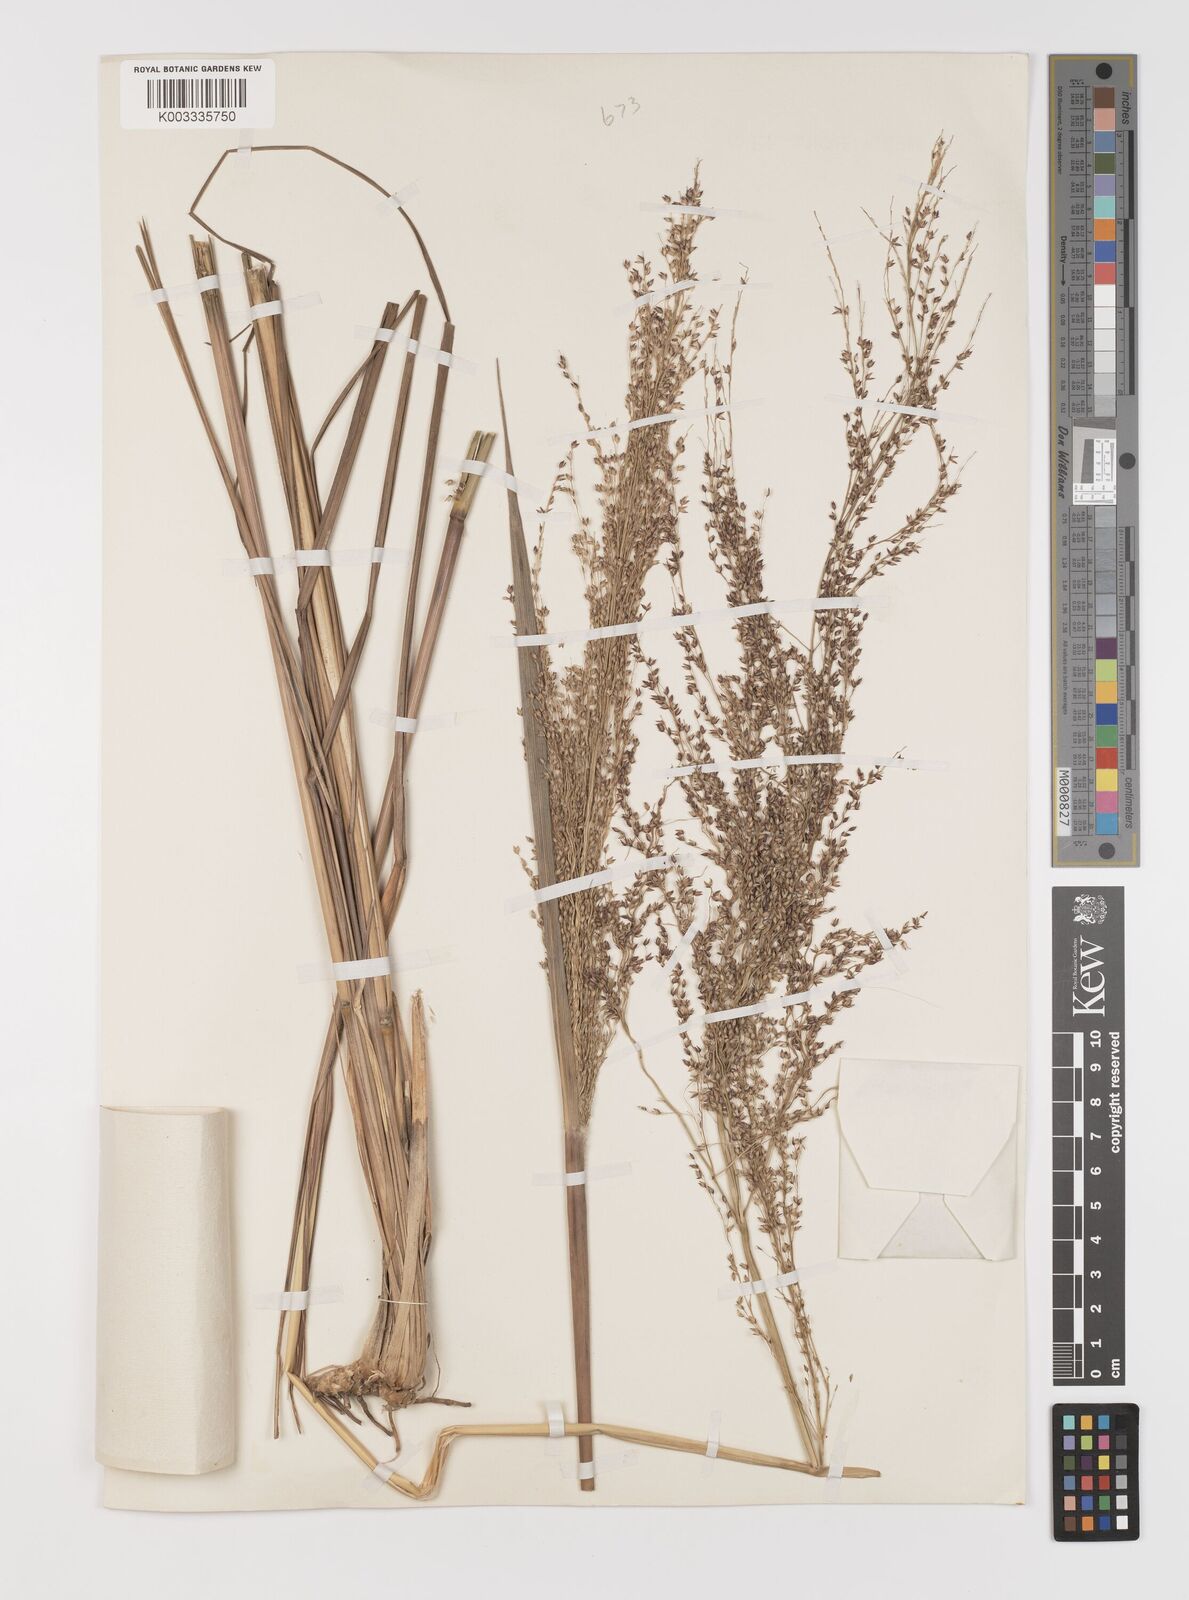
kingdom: Plantae
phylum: Tracheophyta
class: Liliopsida
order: Poales
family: Poaceae
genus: Panicum
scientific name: Panicum fluviicola
